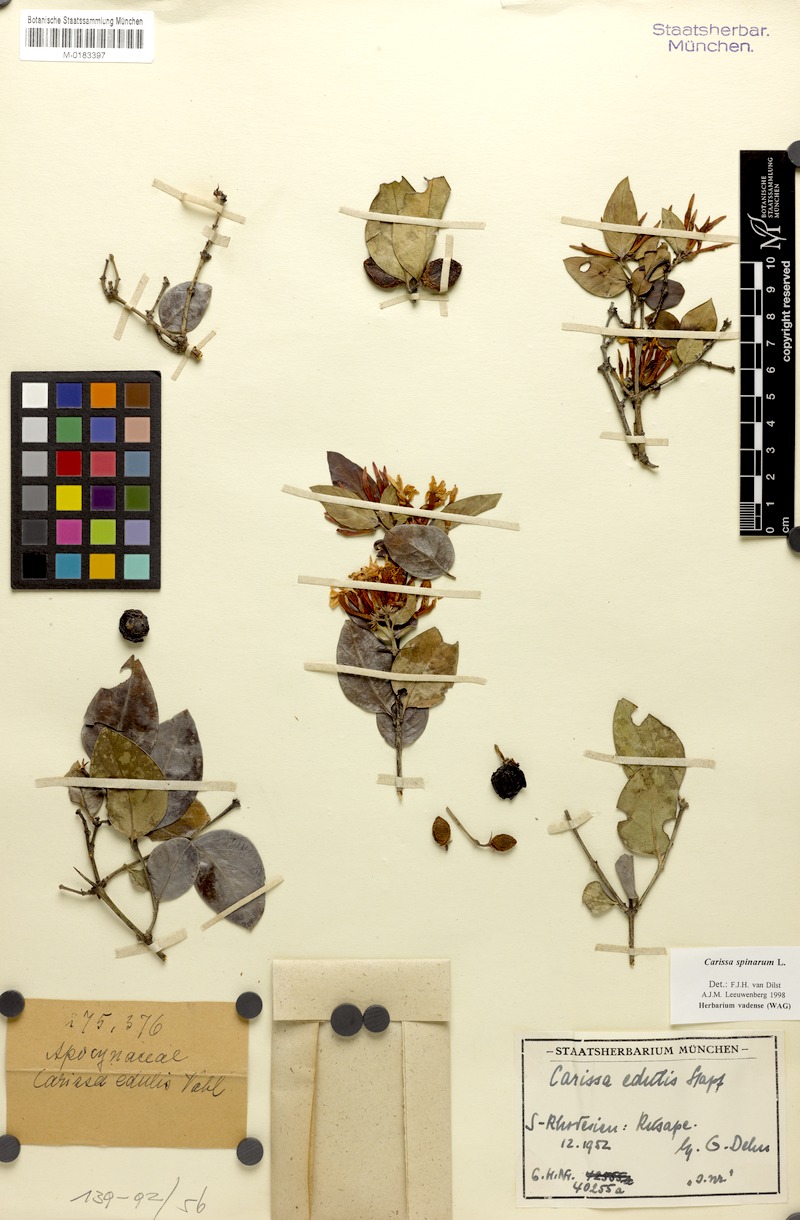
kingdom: Plantae
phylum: Tracheophyta
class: Magnoliopsida
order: Gentianales
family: Apocynaceae
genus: Carissa
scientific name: Carissa spinarum
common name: Egyptian carissa
